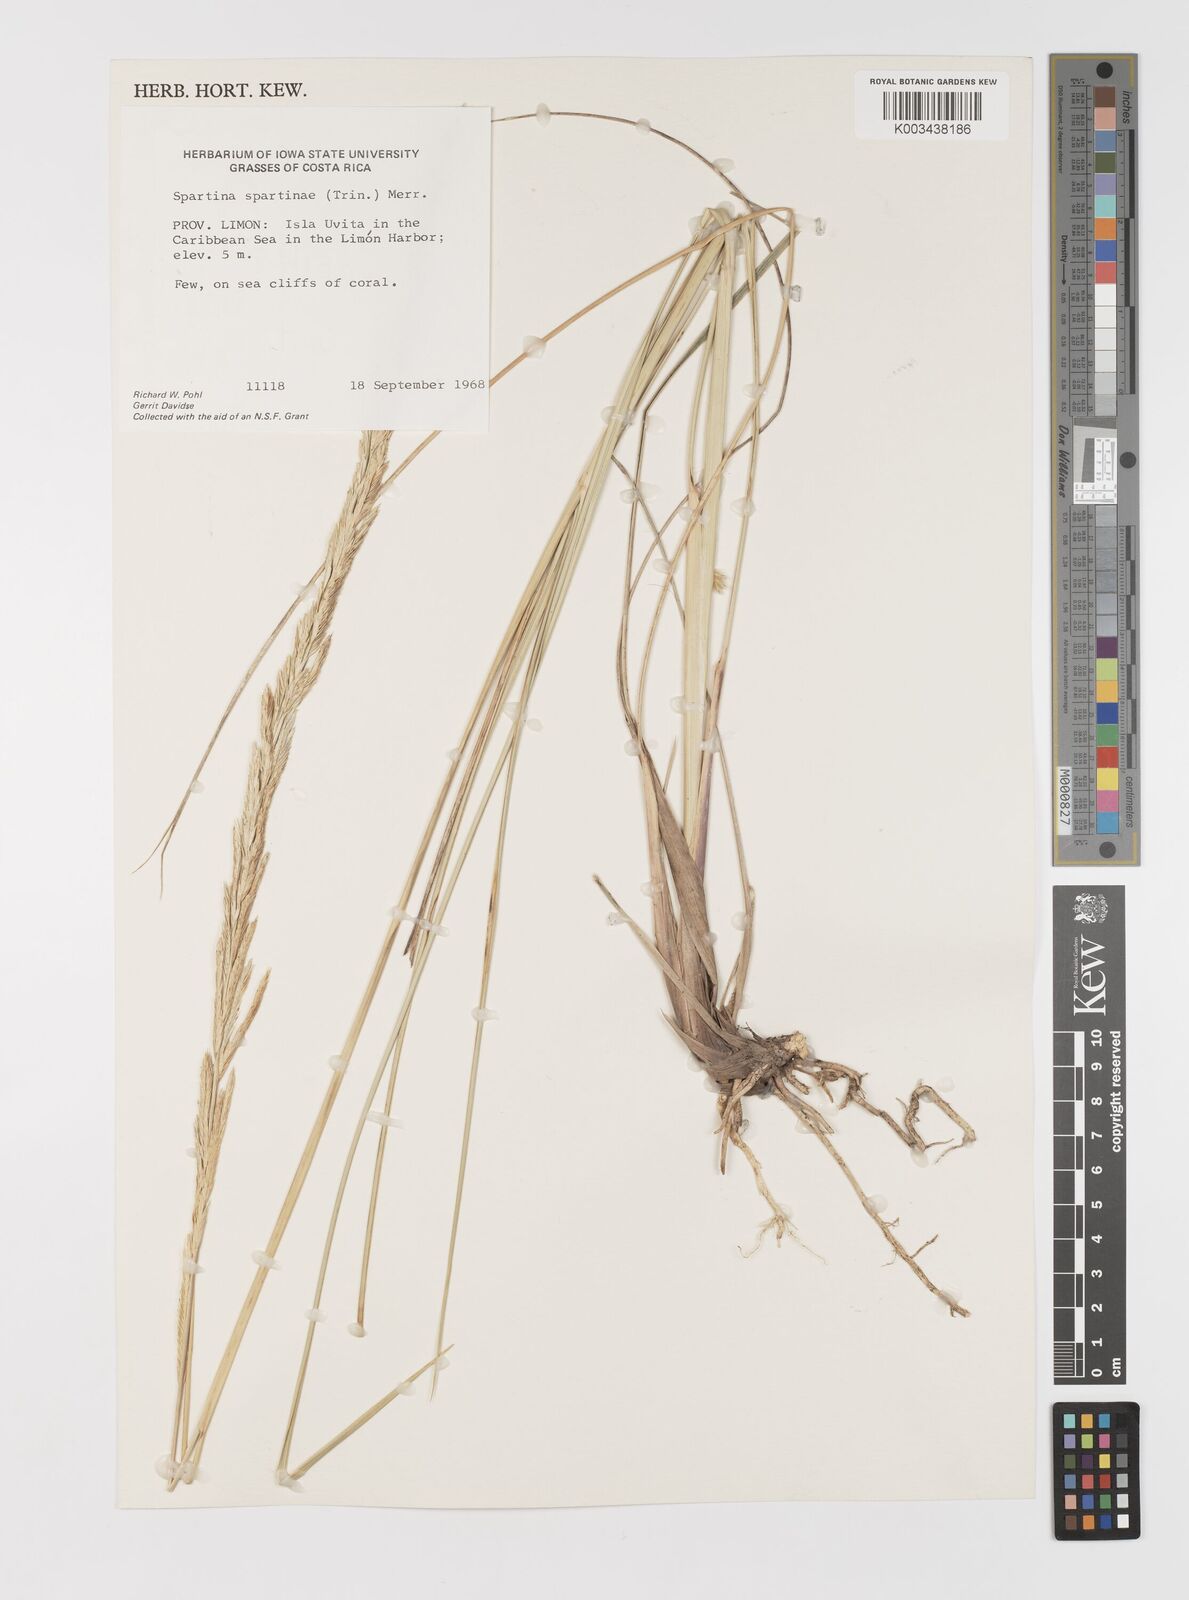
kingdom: Plantae
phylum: Tracheophyta
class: Liliopsida
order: Poales
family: Poaceae
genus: Sporobolus
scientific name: Sporobolus spartinae
